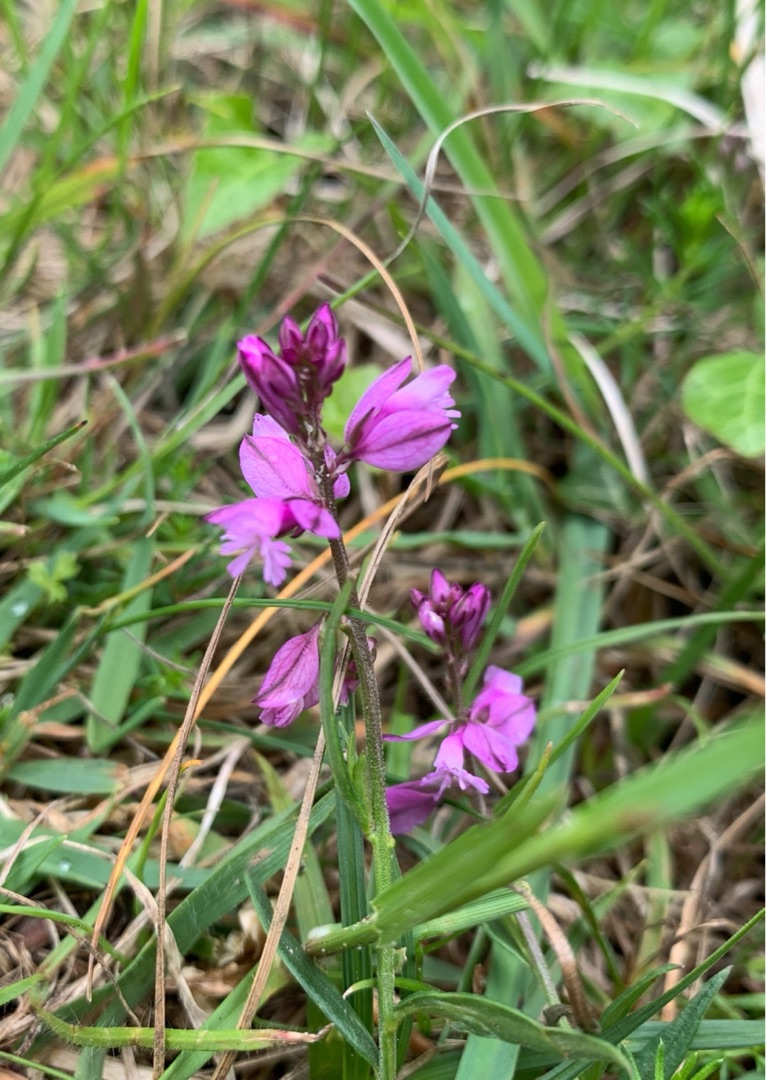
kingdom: Plantae
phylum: Tracheophyta
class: Magnoliopsida
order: Fabales
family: Polygalaceae
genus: Polygala
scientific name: Polygala vulgaris
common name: Almindelig mælkeurt
